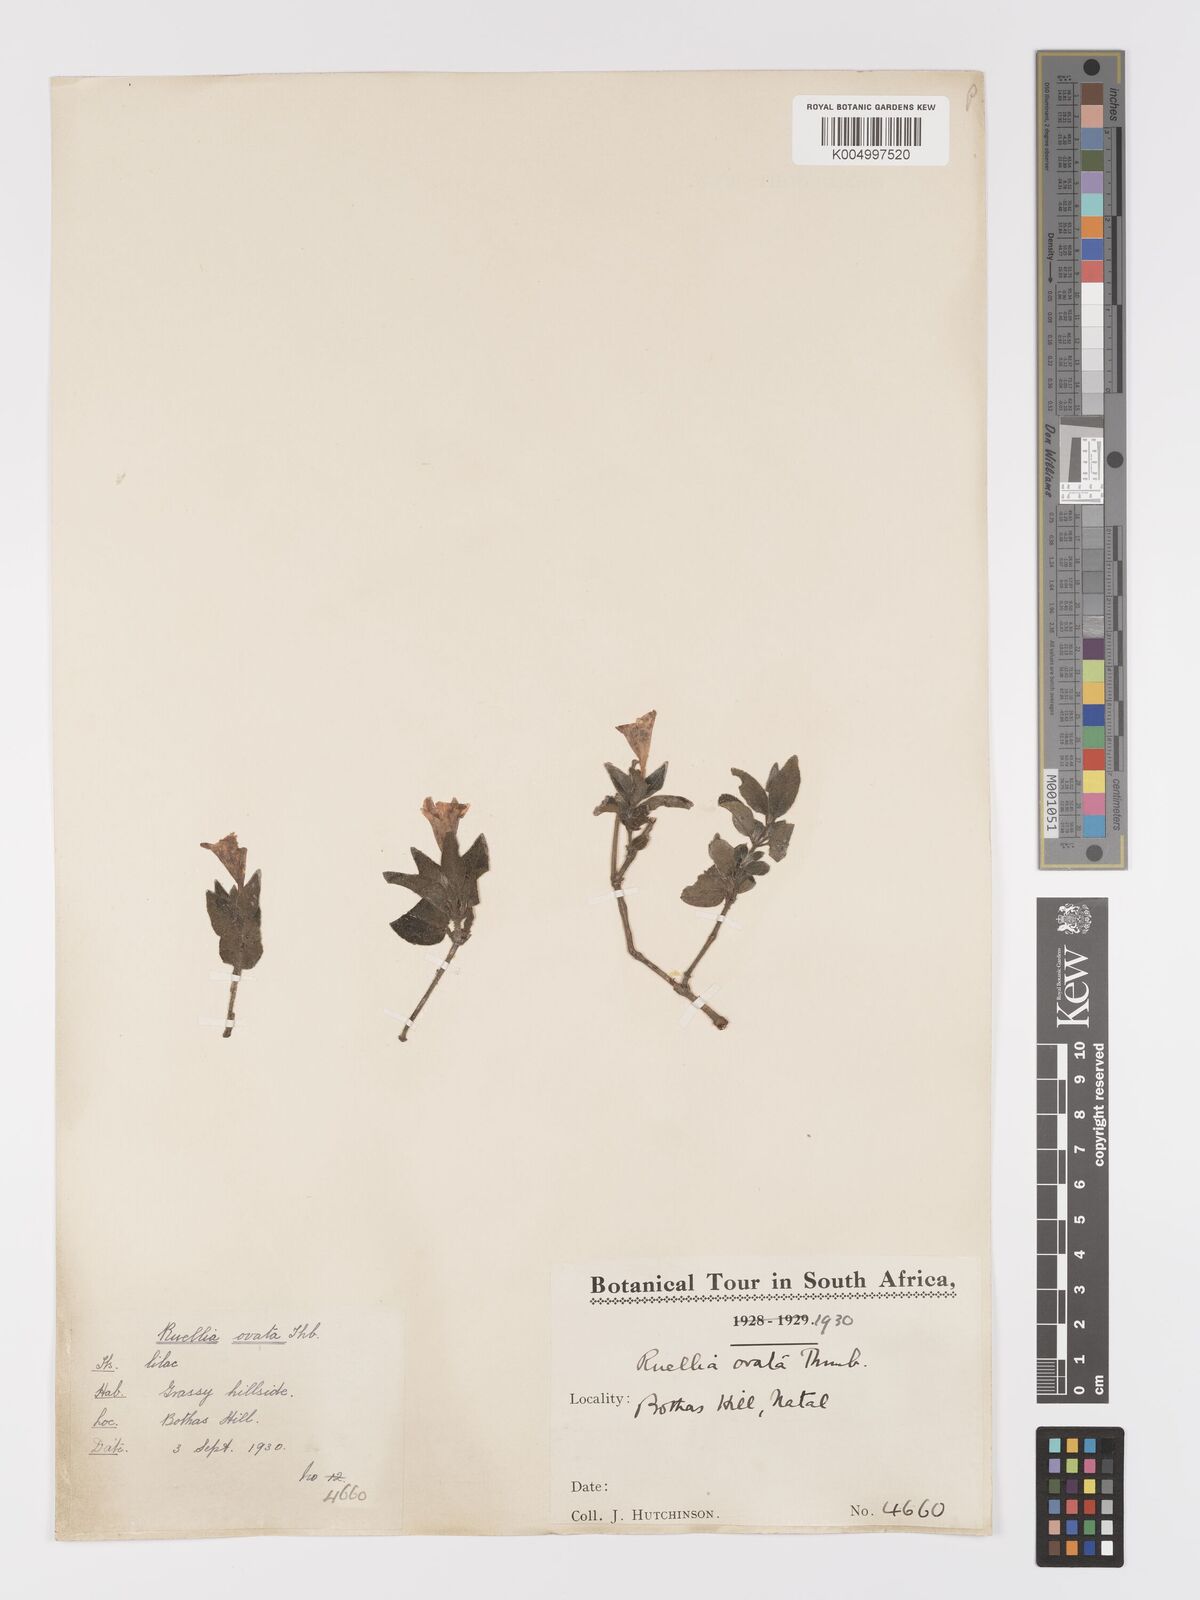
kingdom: Plantae
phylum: Tracheophyta
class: Magnoliopsida
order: Lamiales
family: Acanthaceae
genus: Ruellia
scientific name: Ruellia
